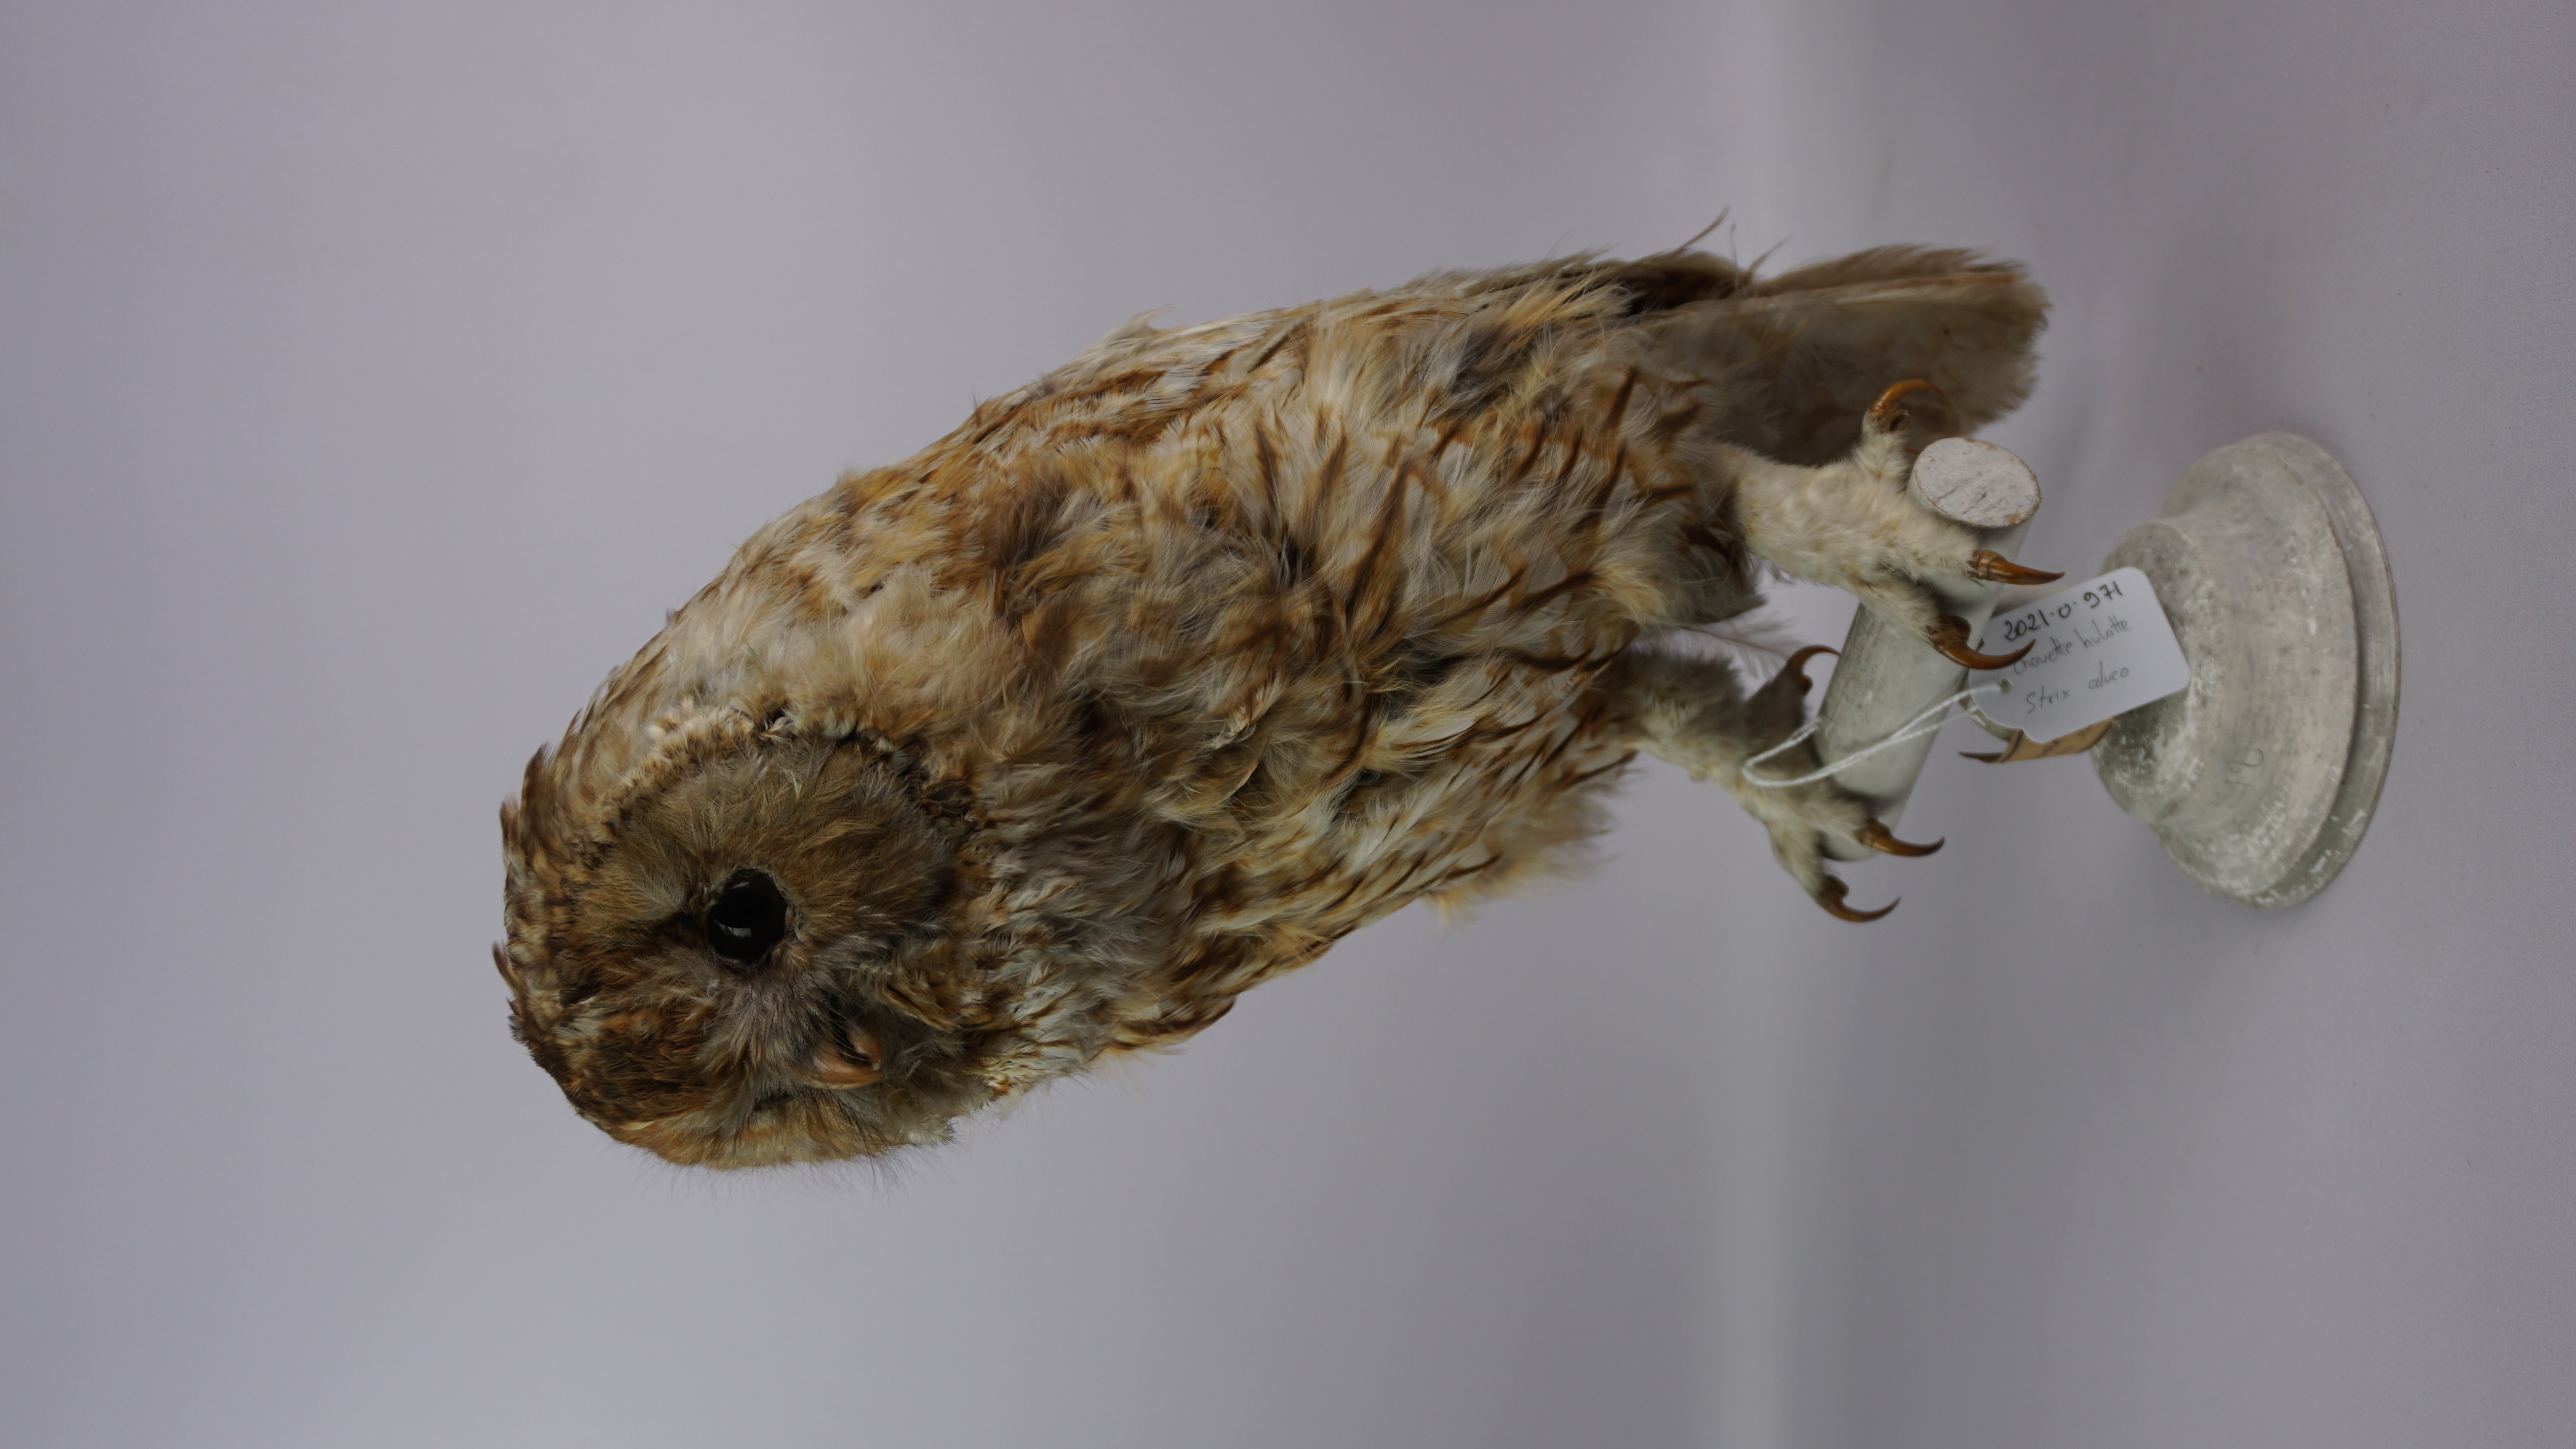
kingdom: Animalia
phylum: Chordata
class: Aves
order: Strigiformes
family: Strigidae
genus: Strix
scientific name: Strix aluco
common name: Tawny owl
